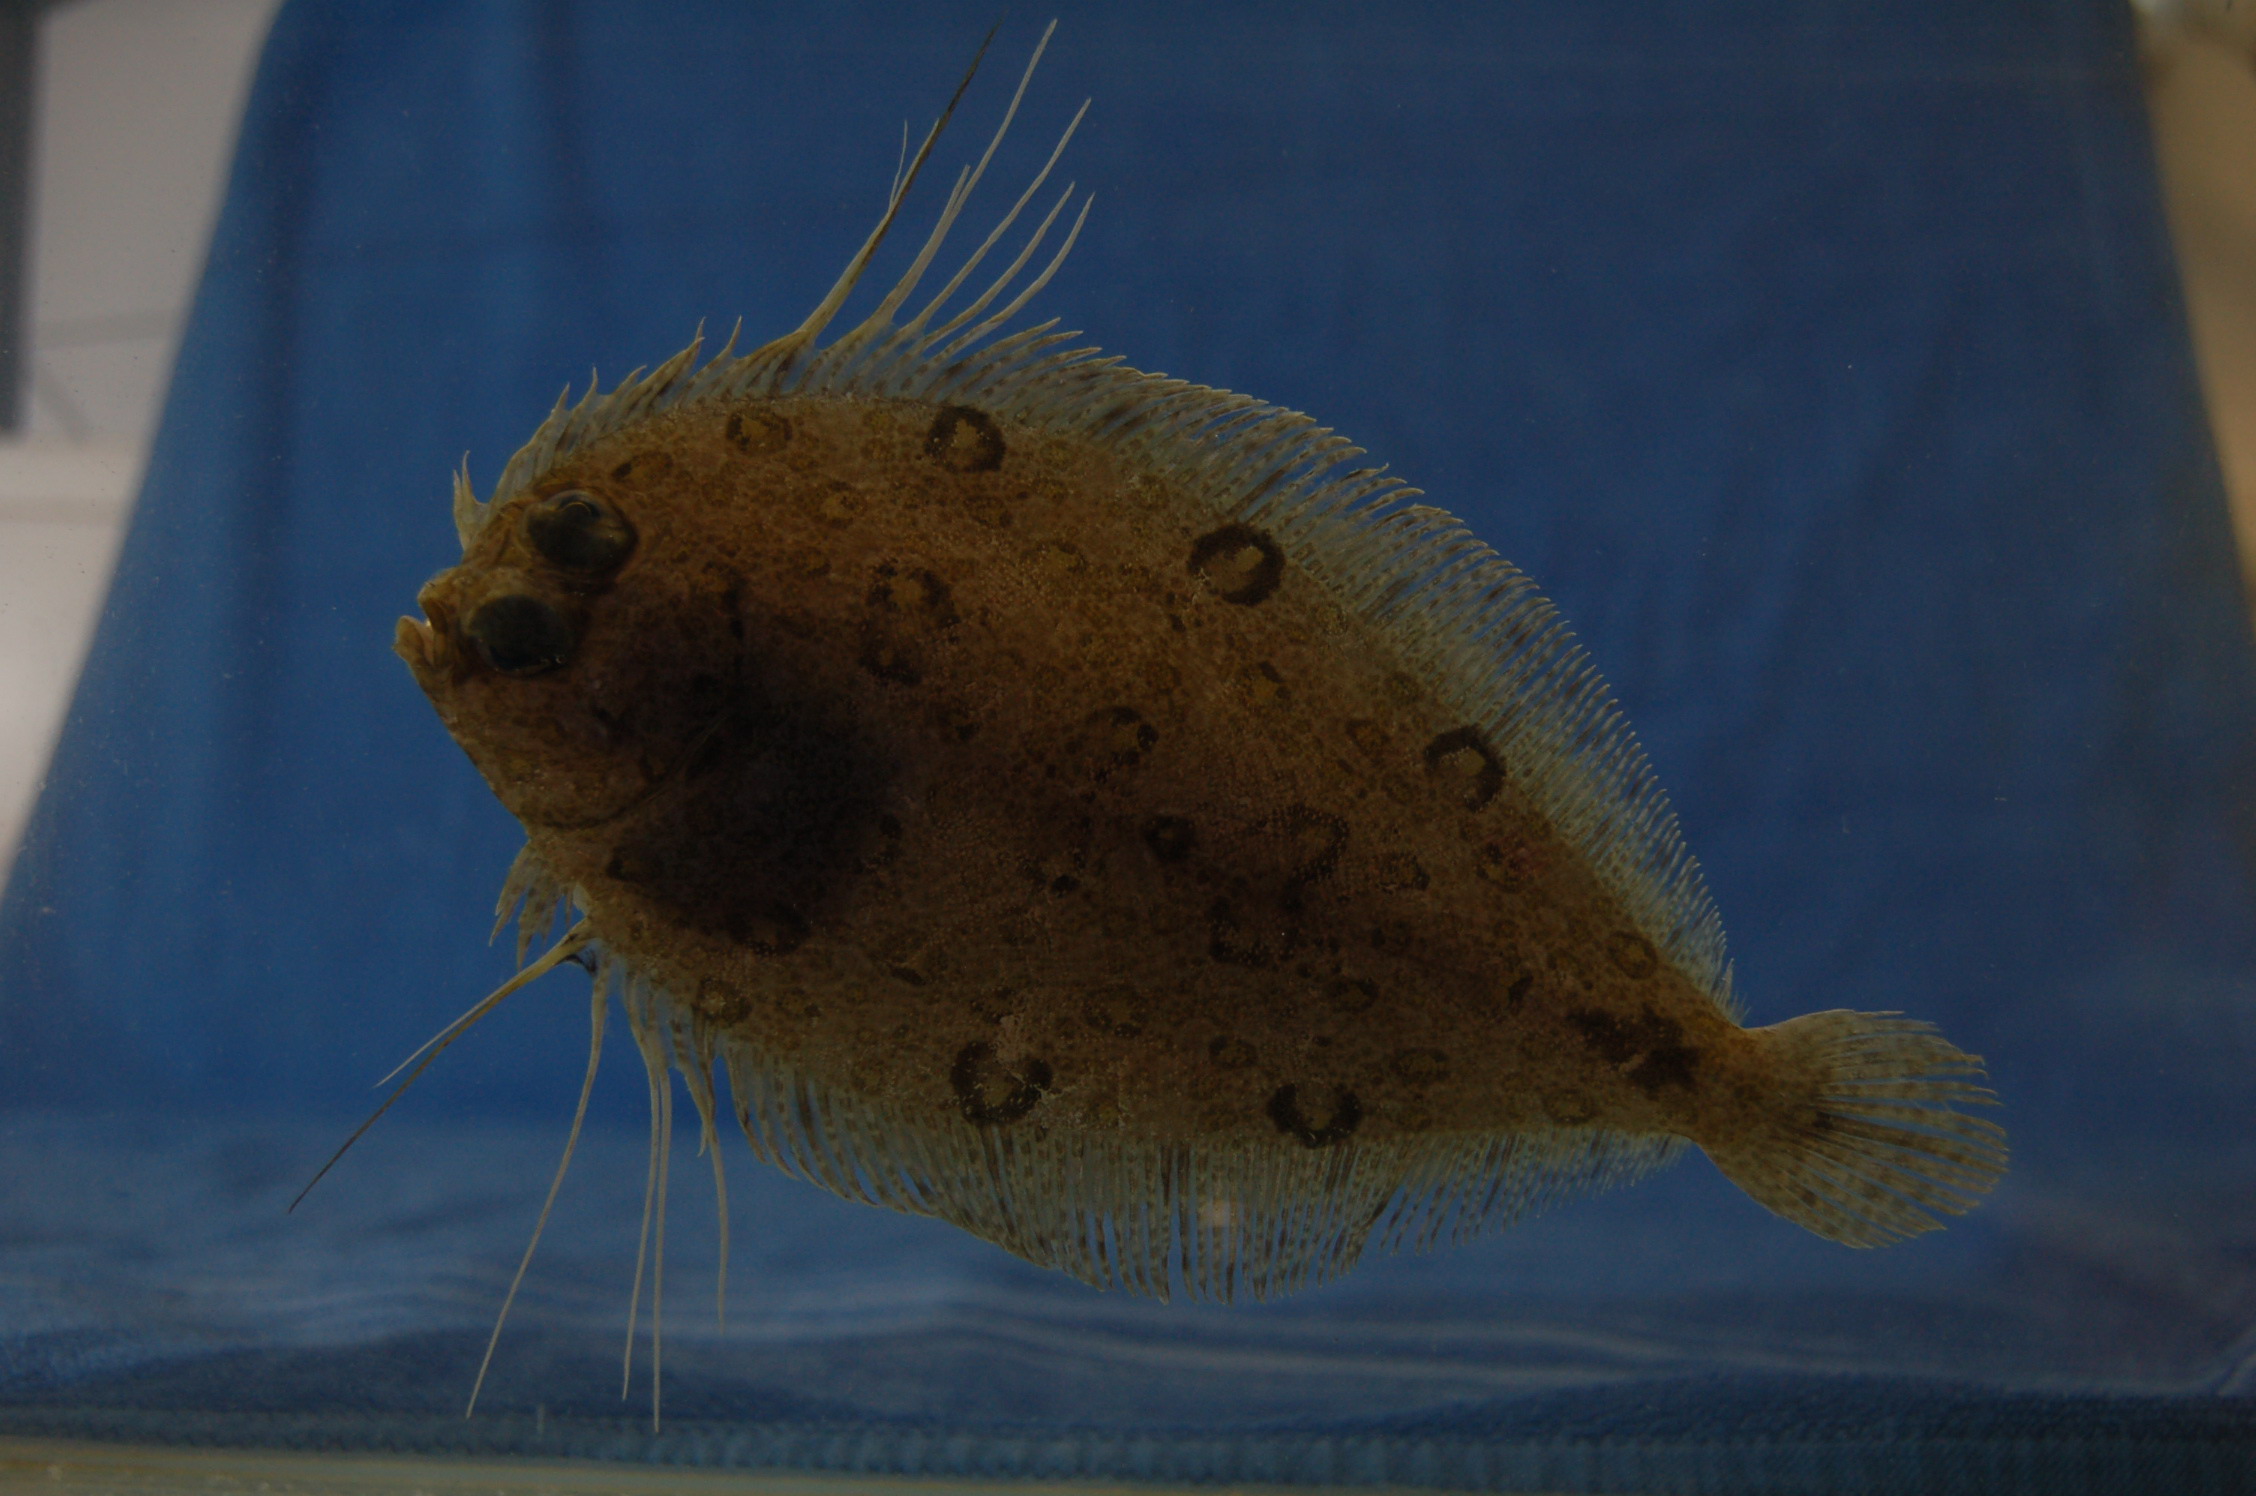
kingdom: Animalia
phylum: Chordata
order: Pleuronectiformes
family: Bothidae
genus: Taeniopsetta
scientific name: Taeniopsetta ocellata
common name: Indo-pacific ocellated flounder
